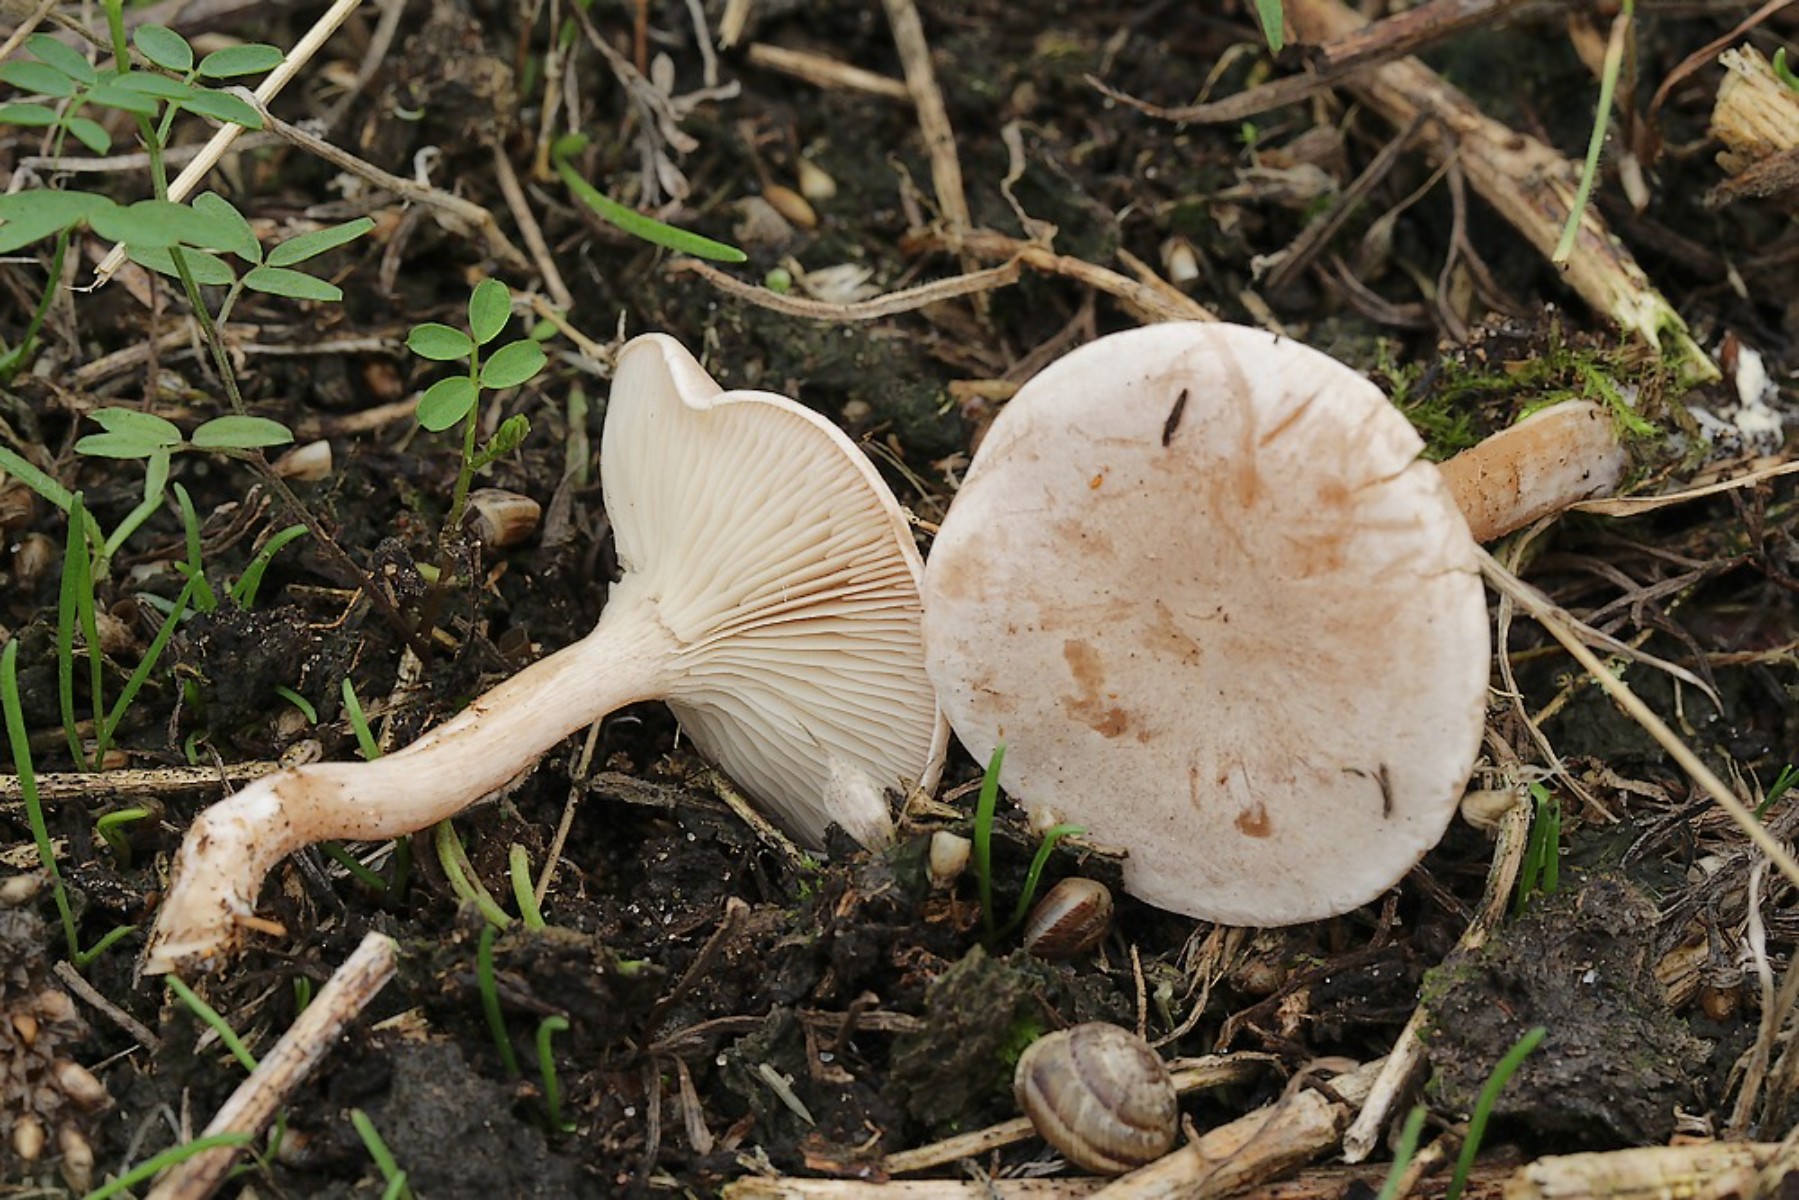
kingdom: Fungi
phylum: Basidiomycota
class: Agaricomycetes
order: Agaricales
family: Tricholomataceae
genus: Clitocybe
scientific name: Clitocybe rivulosa
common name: eng-tragthat
